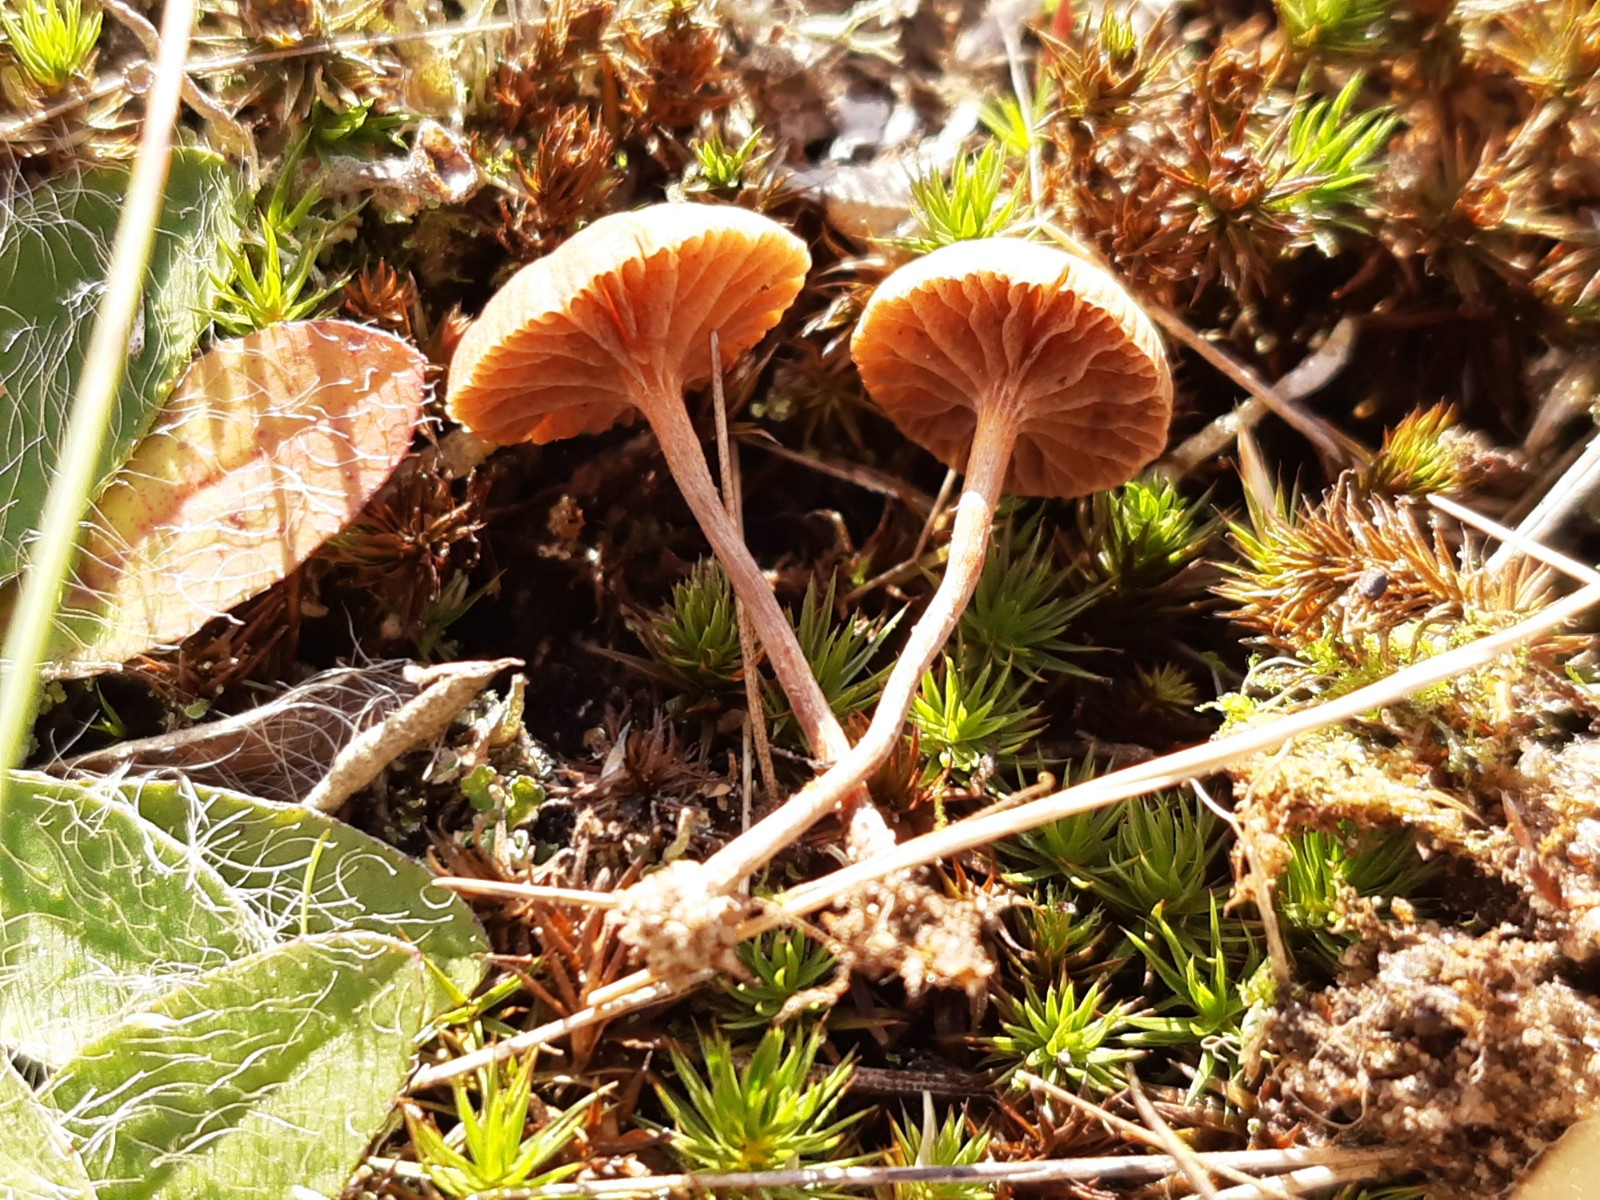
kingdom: Fungi
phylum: Basidiomycota
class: Agaricomycetes
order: Agaricales
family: Strophariaceae
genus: Deconica
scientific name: Deconica montana
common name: rødbrun stråhat
